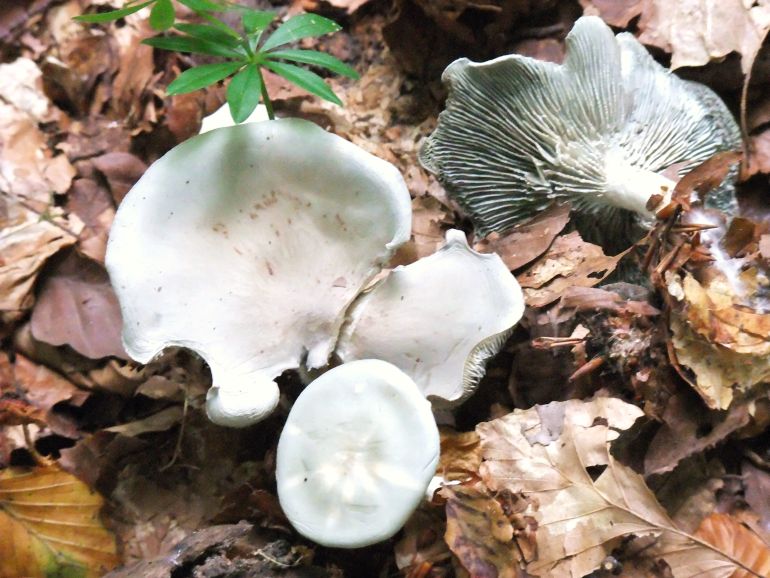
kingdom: Fungi
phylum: Basidiomycota
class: Agaricomycetes
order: Agaricales
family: Tricholomataceae
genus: Clitocybe
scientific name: Clitocybe odora
